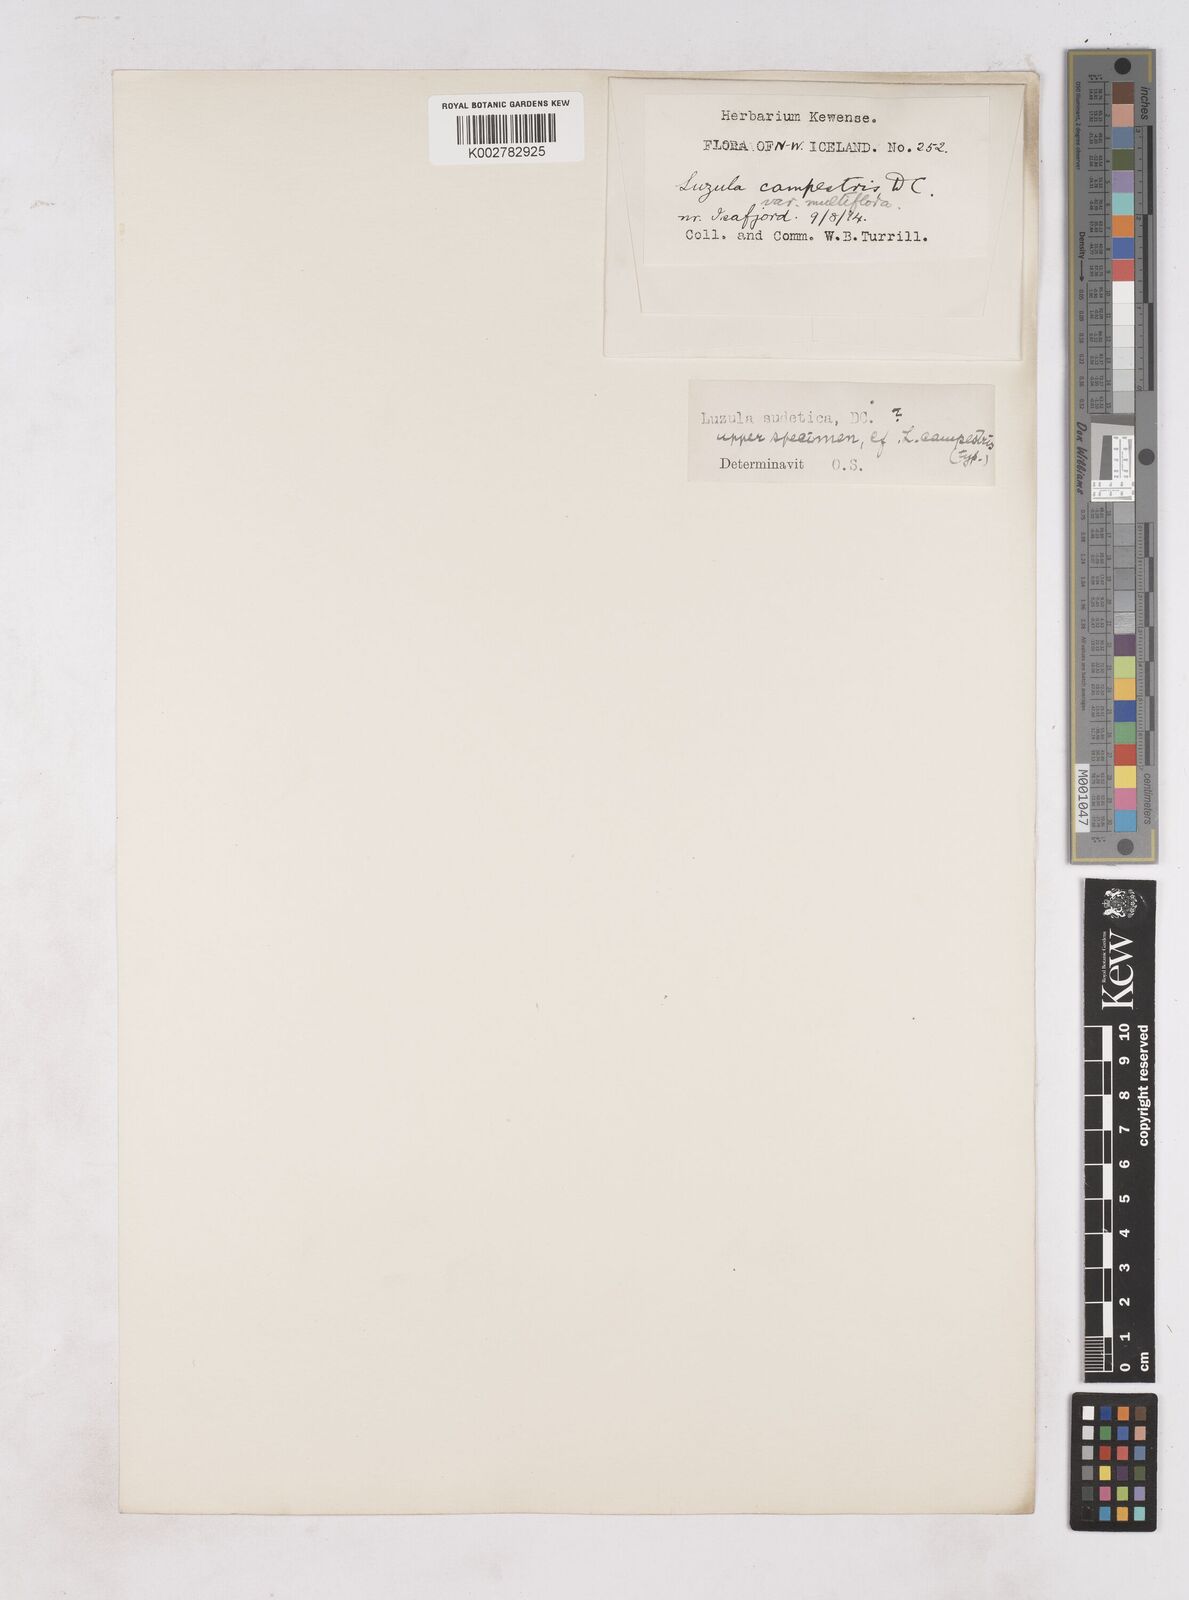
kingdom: Plantae
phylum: Tracheophyta
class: Liliopsida
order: Poales
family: Juncaceae
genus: Luzula
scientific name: Luzula campestris
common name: Field wood-rush
